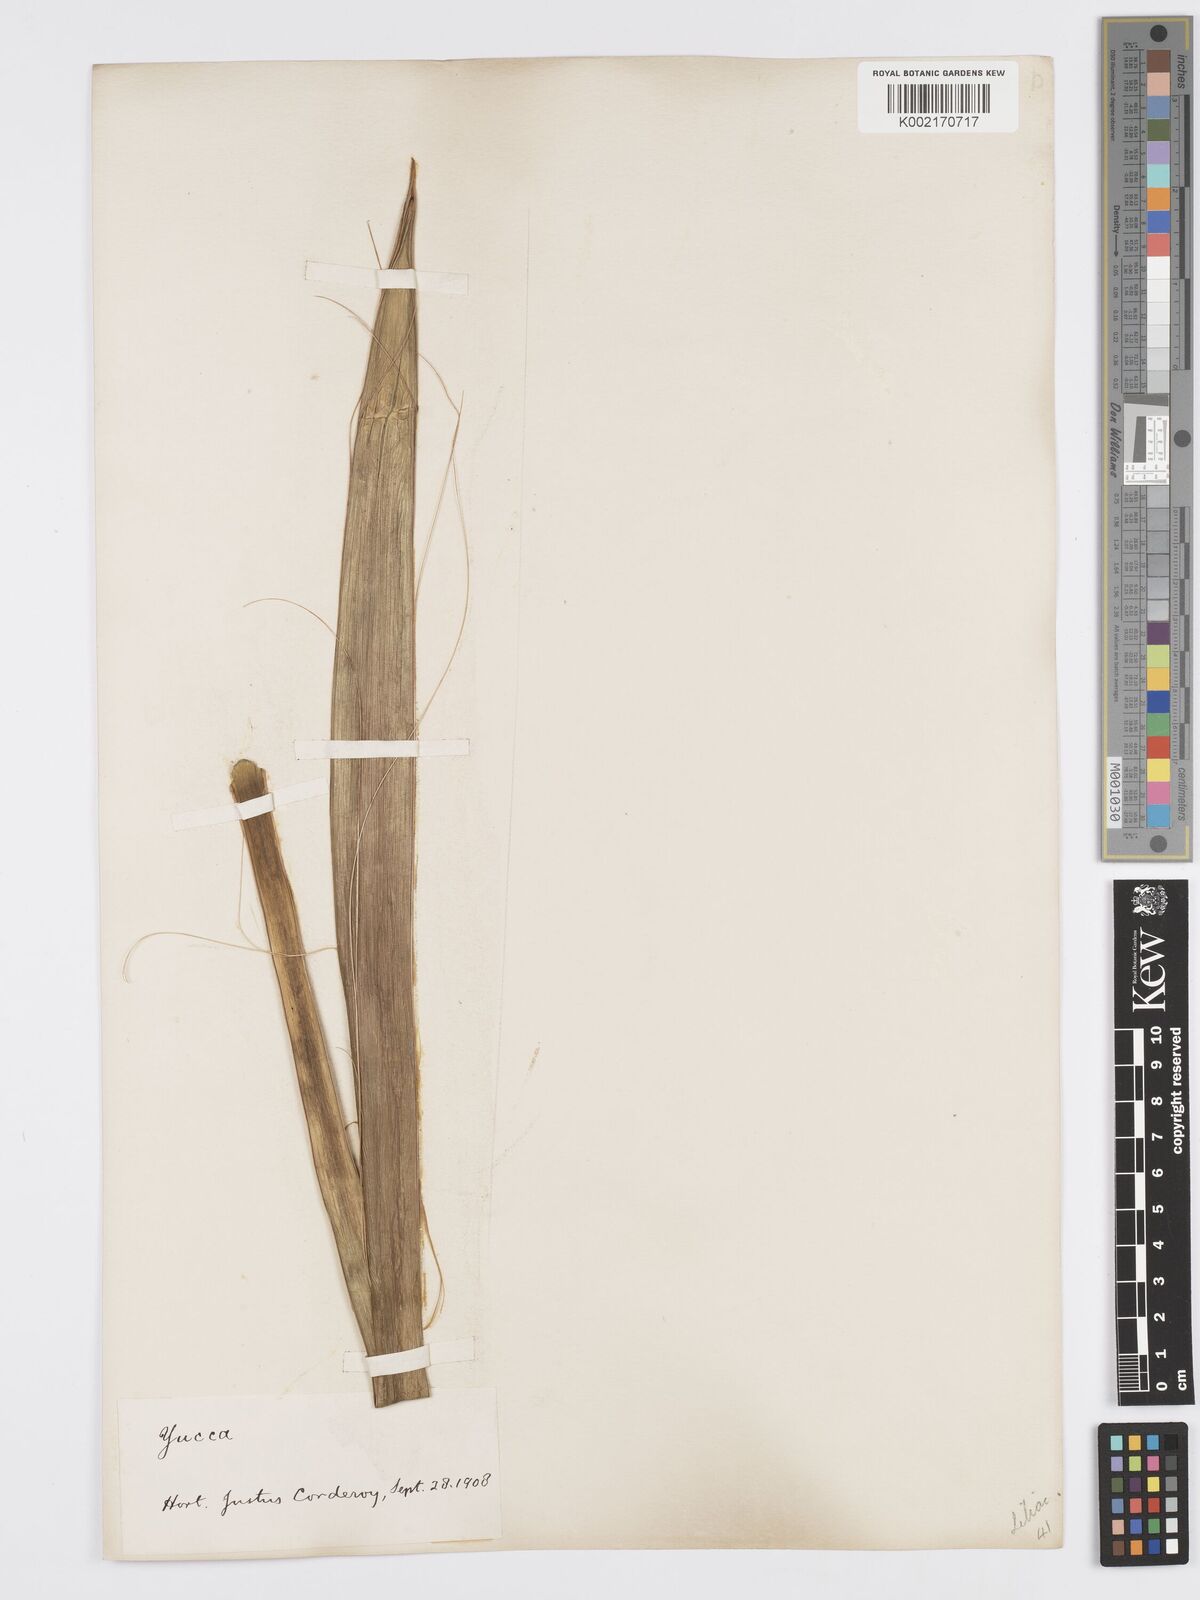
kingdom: Plantae
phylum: Tracheophyta
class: Liliopsida
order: Asparagales
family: Asparagaceae
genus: Yucca
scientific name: Yucca
